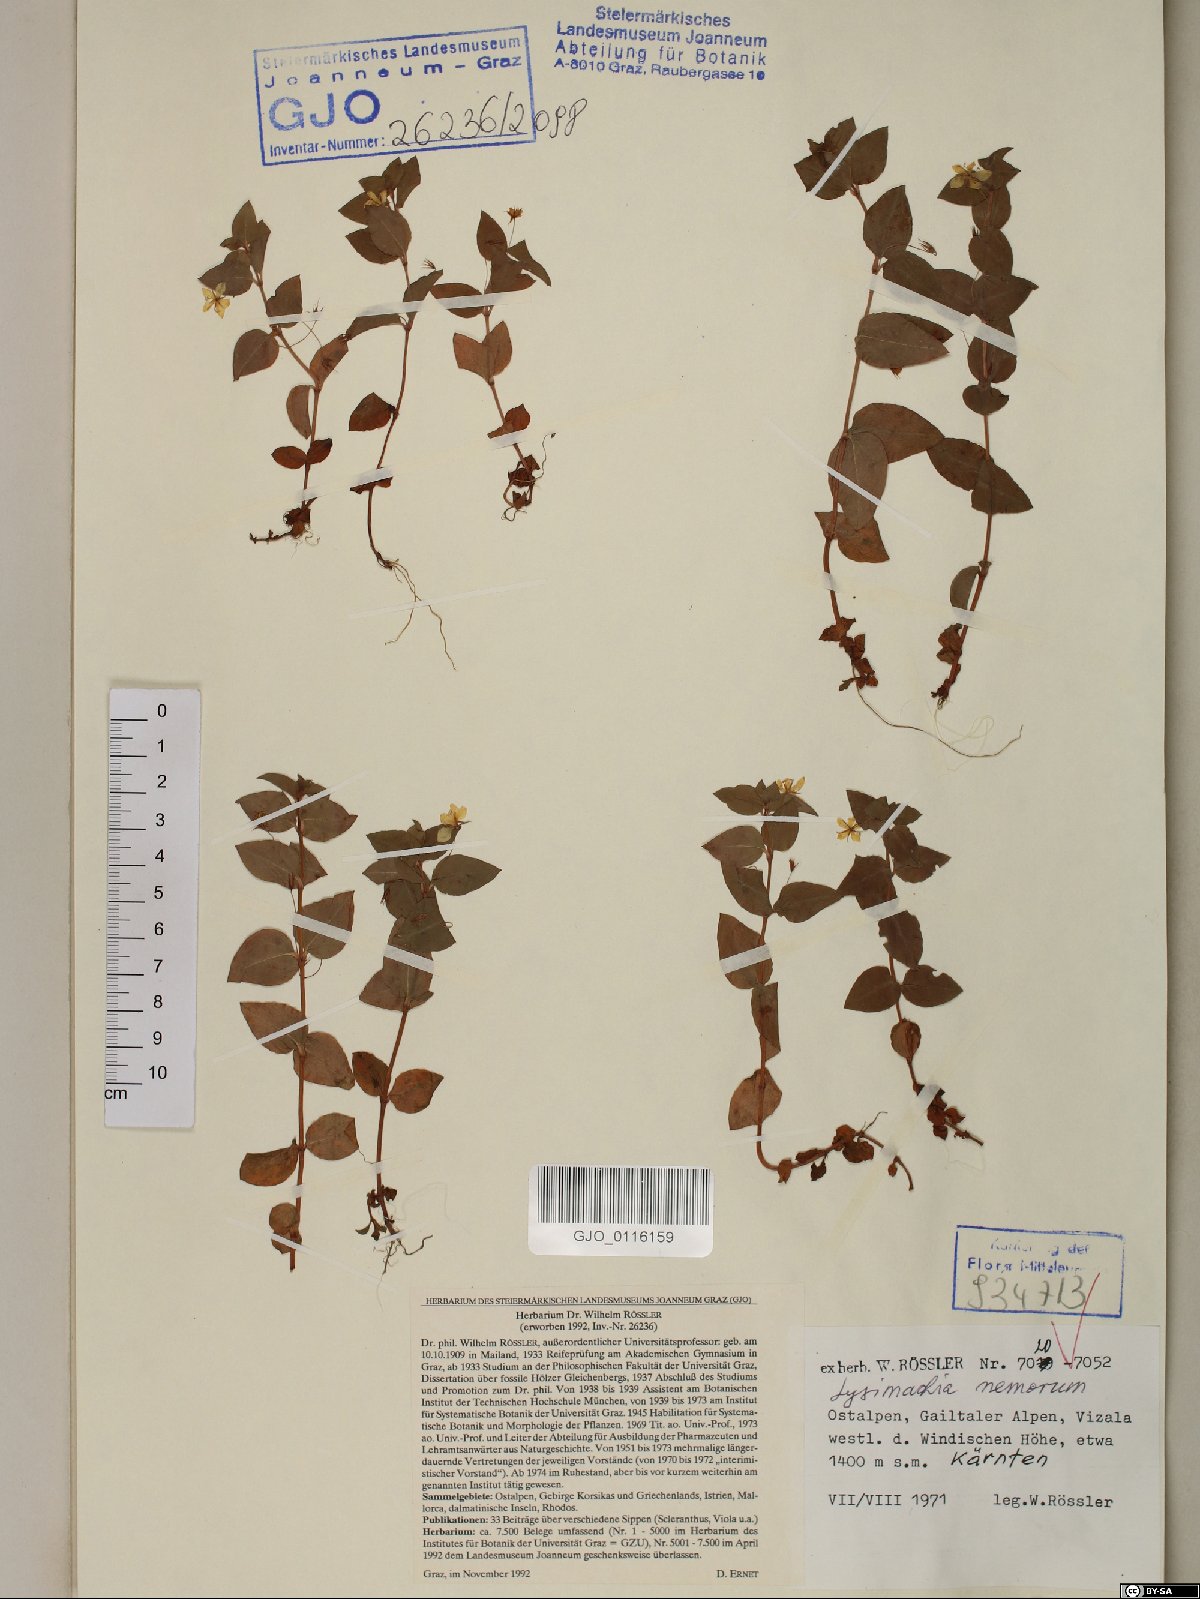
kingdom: Plantae
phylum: Tracheophyta
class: Magnoliopsida
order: Ericales
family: Primulaceae
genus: Lysimachia
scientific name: Lysimachia nemorum
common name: Yellow pimpernel
